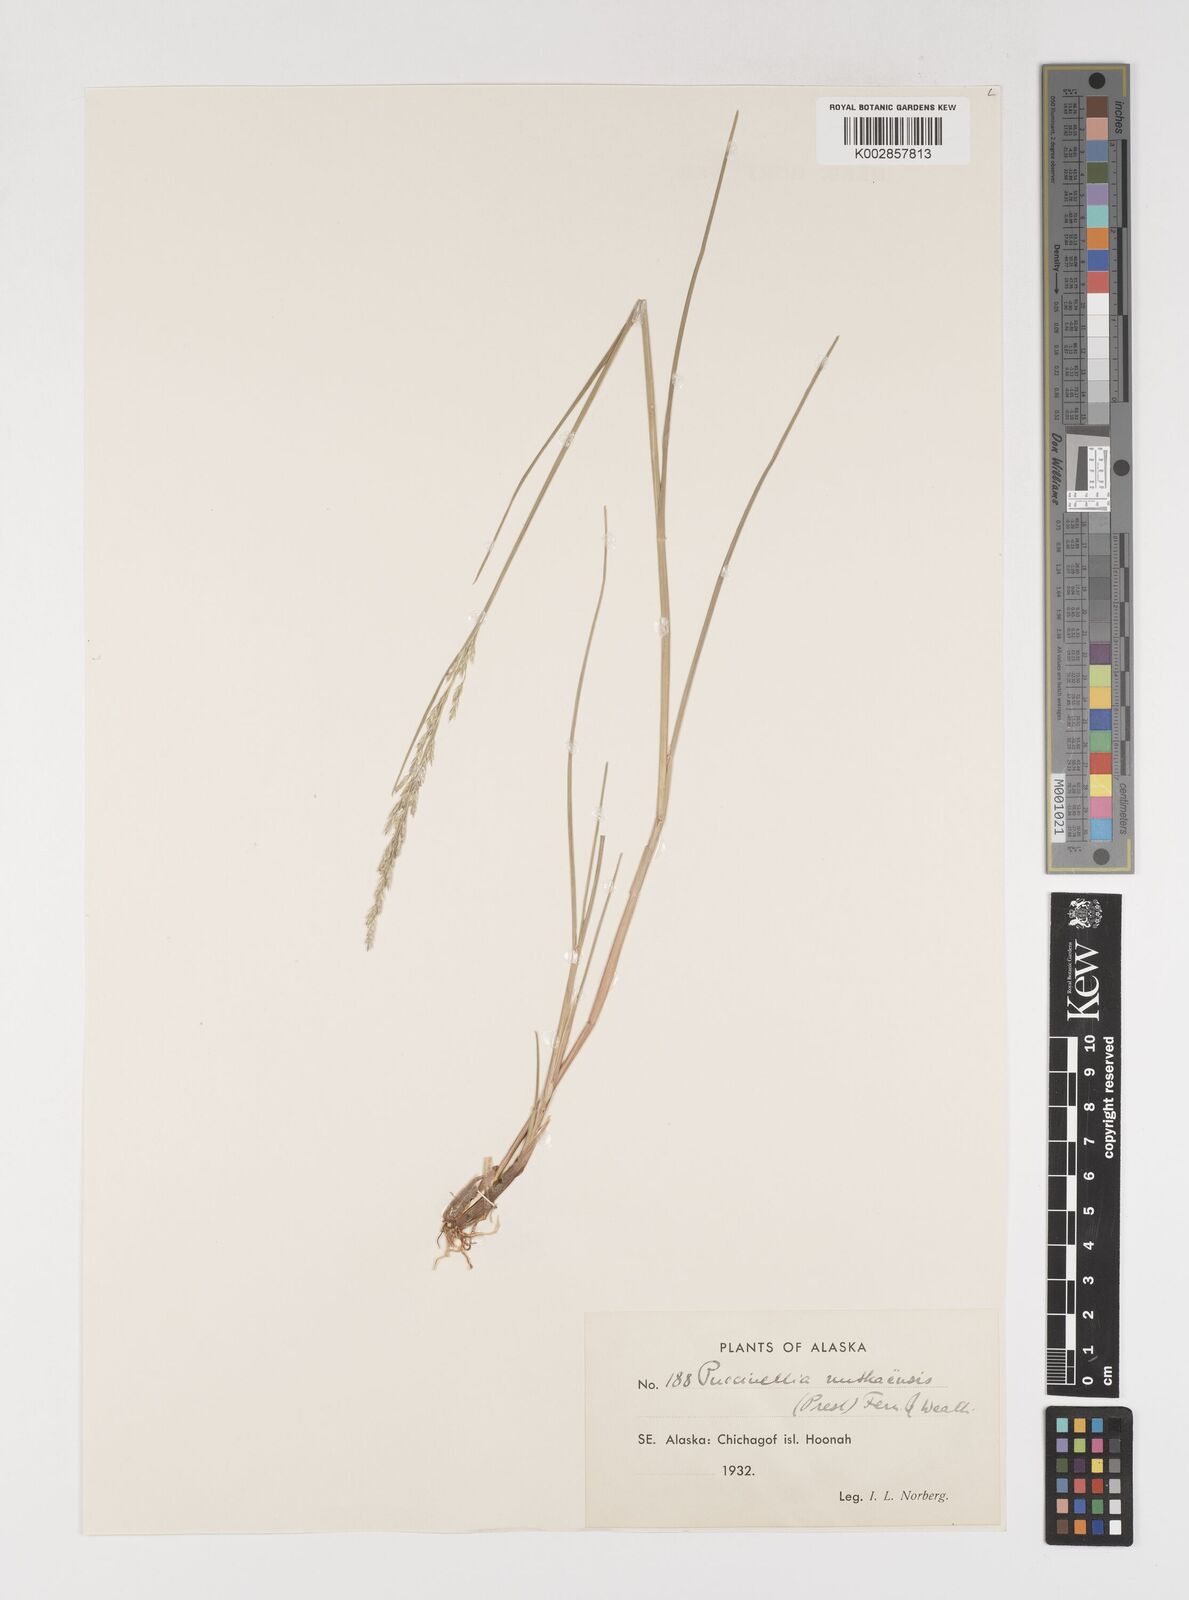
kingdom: Plantae
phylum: Tracheophyta
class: Liliopsida
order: Poales
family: Poaceae
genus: Puccinellia
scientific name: Puccinellia nutkaensis
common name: Nootka alkaligrass
